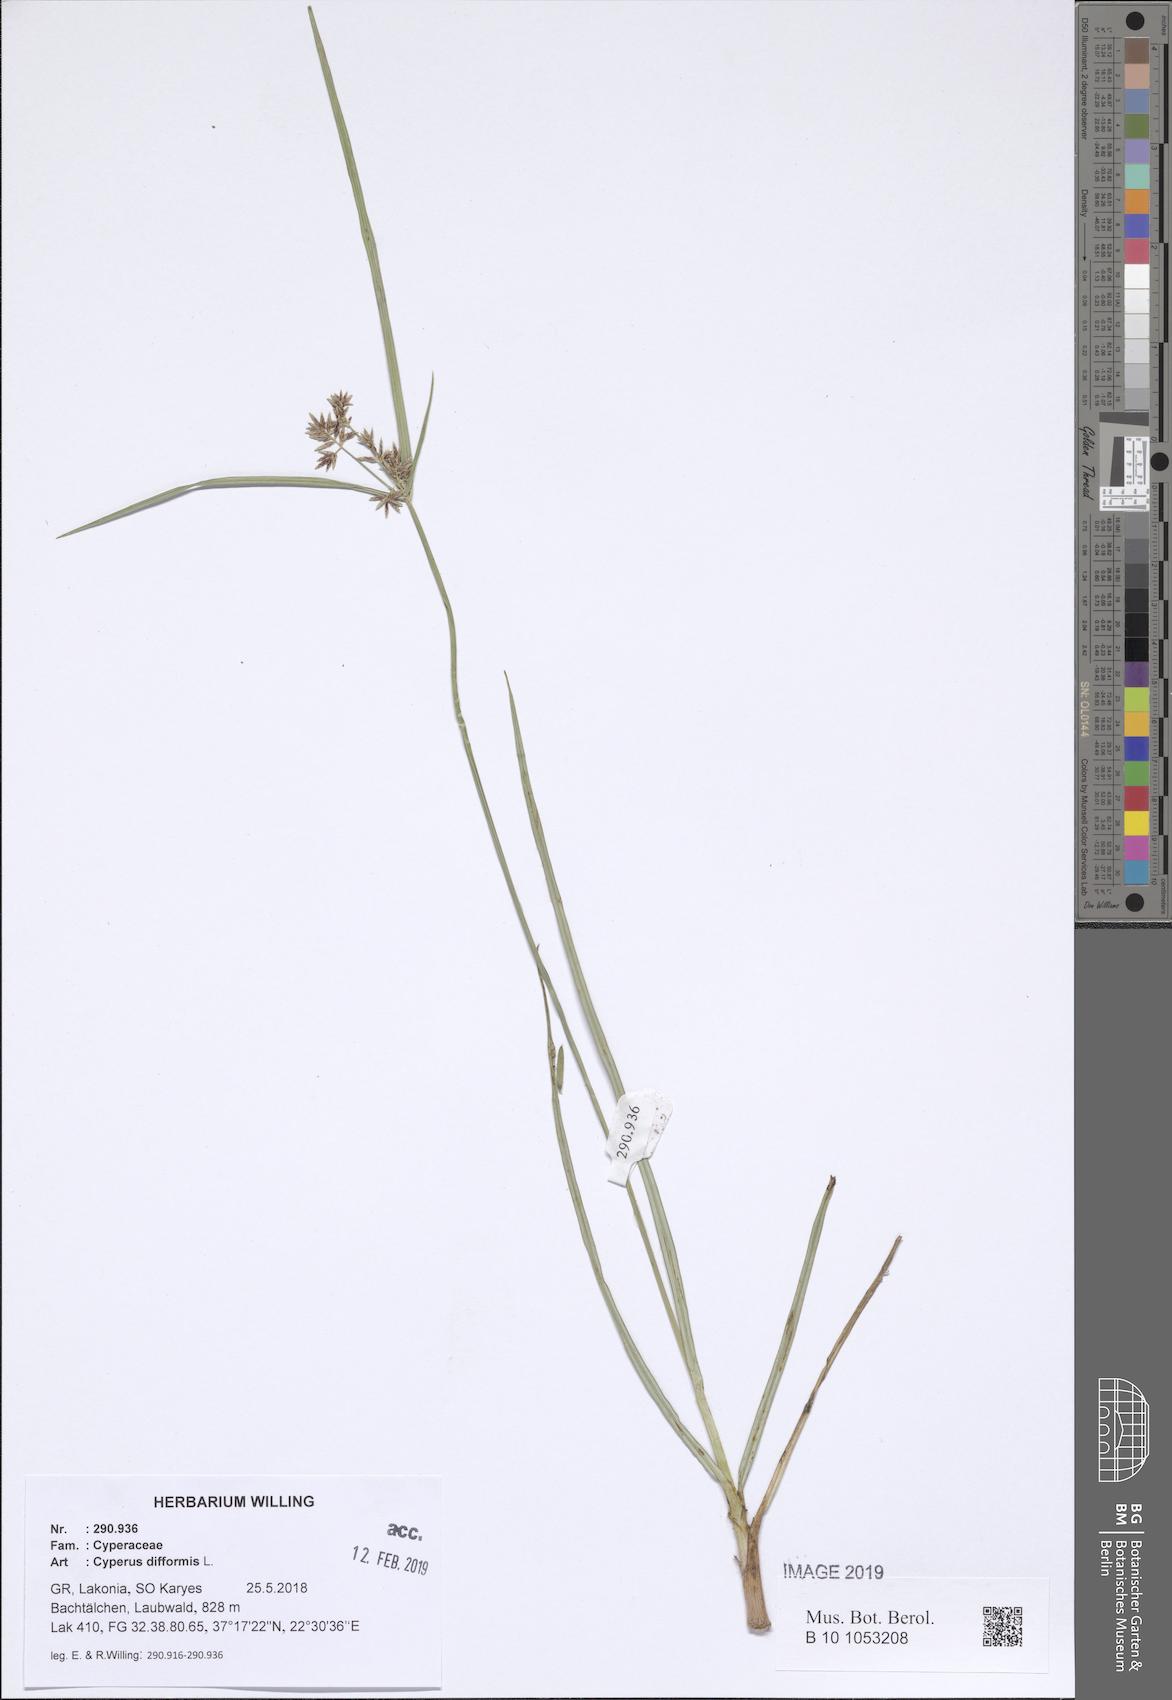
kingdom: Plantae
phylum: Tracheophyta
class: Liliopsida
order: Poales
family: Cyperaceae
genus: Cyperus
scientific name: Cyperus difformis
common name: Variable flatsedge
